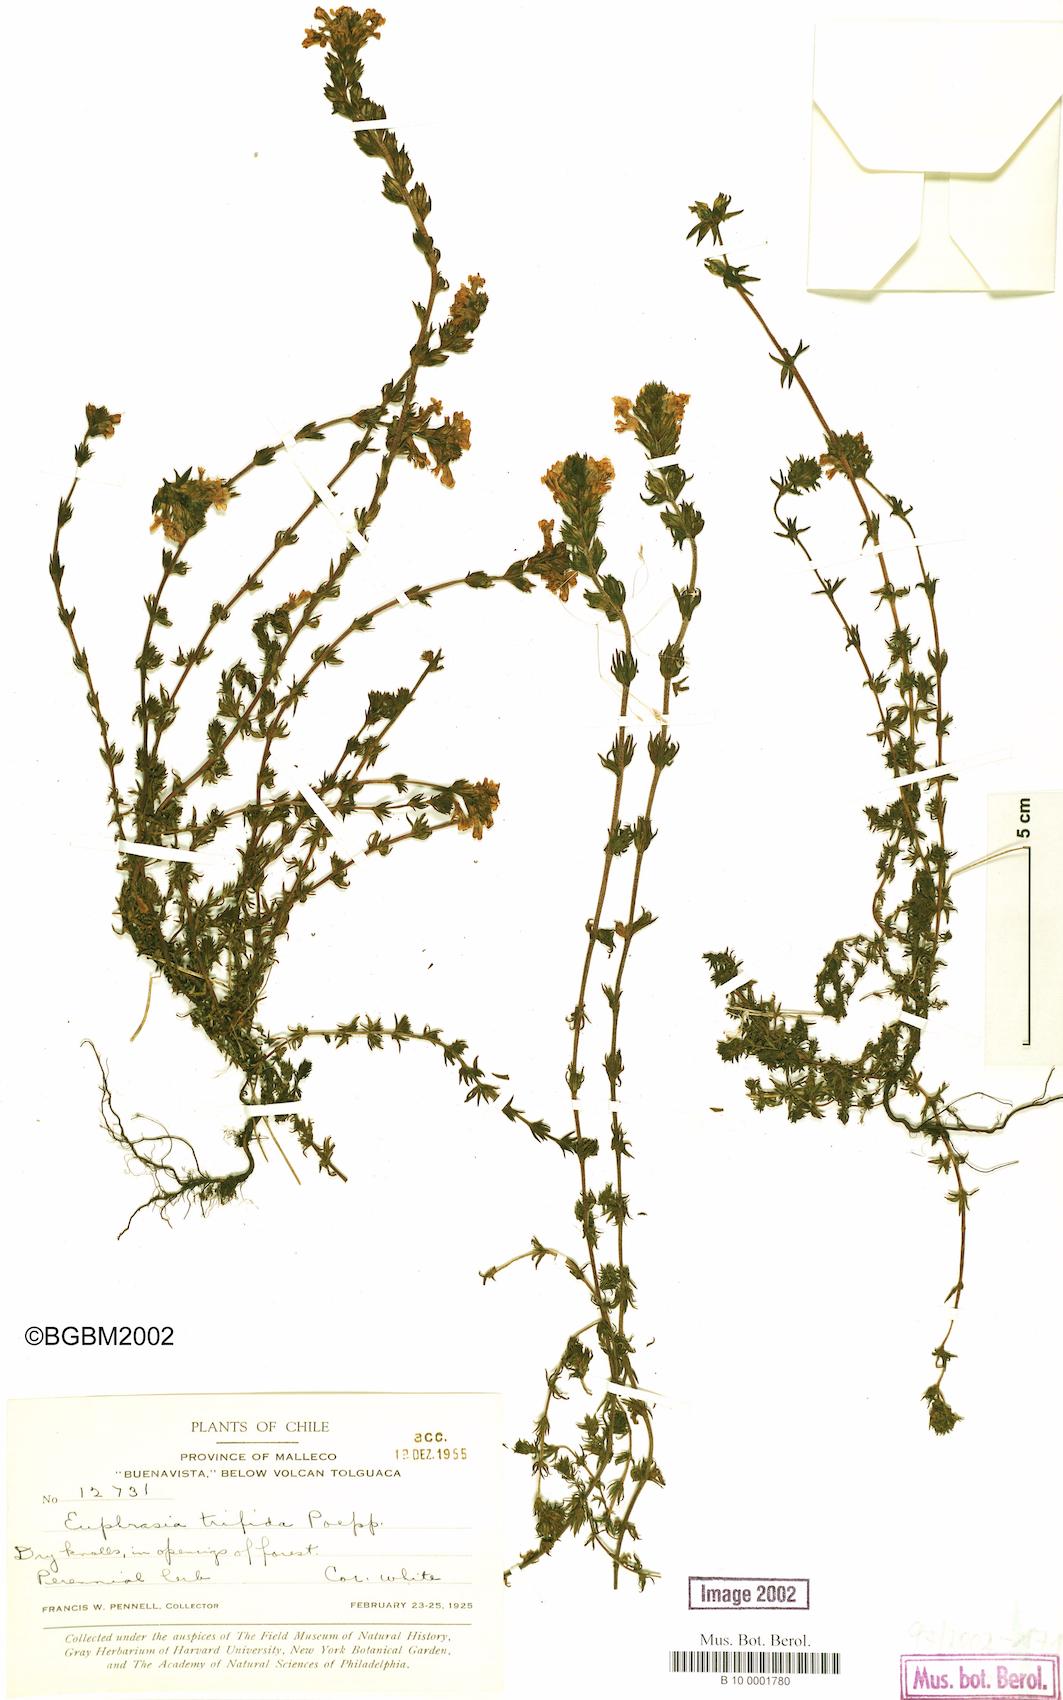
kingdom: Plantae
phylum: Tracheophyta
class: Magnoliopsida
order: Lamiales
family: Orobanchaceae
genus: Euphrasia
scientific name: Euphrasia trifida
